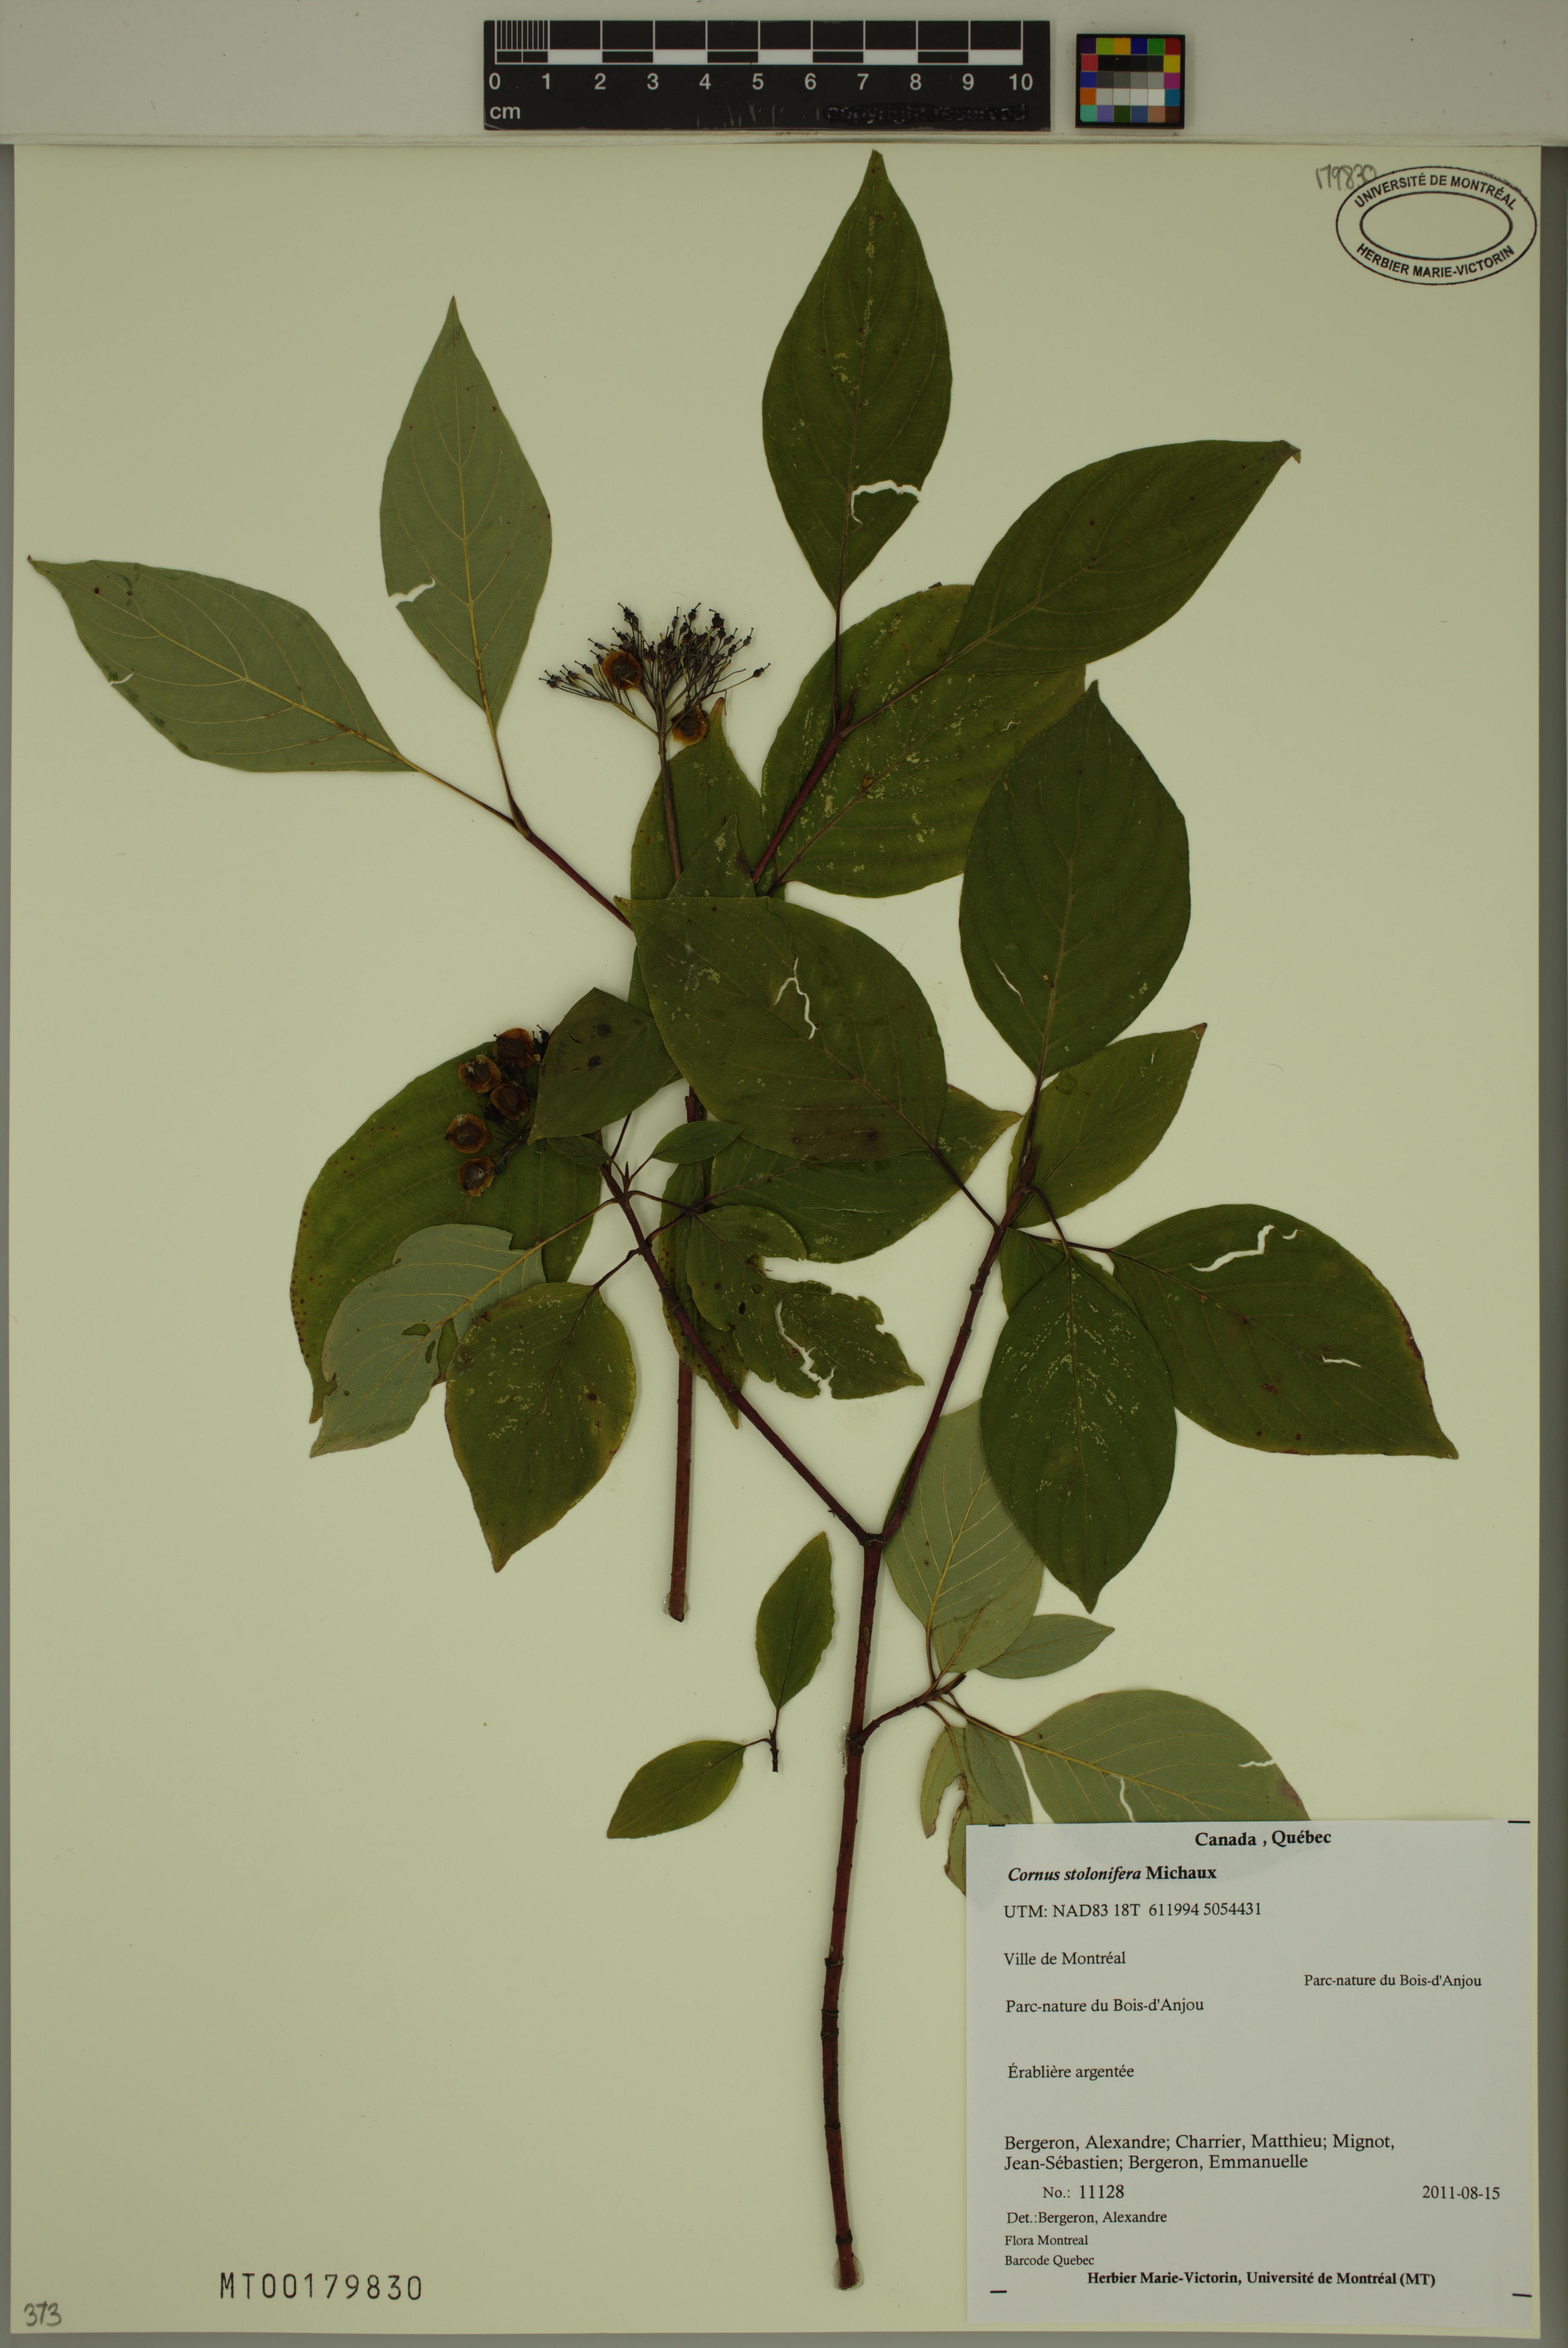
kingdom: Plantae
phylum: Tracheophyta
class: Magnoliopsida
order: Cornales
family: Cornaceae
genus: Cornus
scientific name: Cornus sericea
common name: Red-osier dogwood
